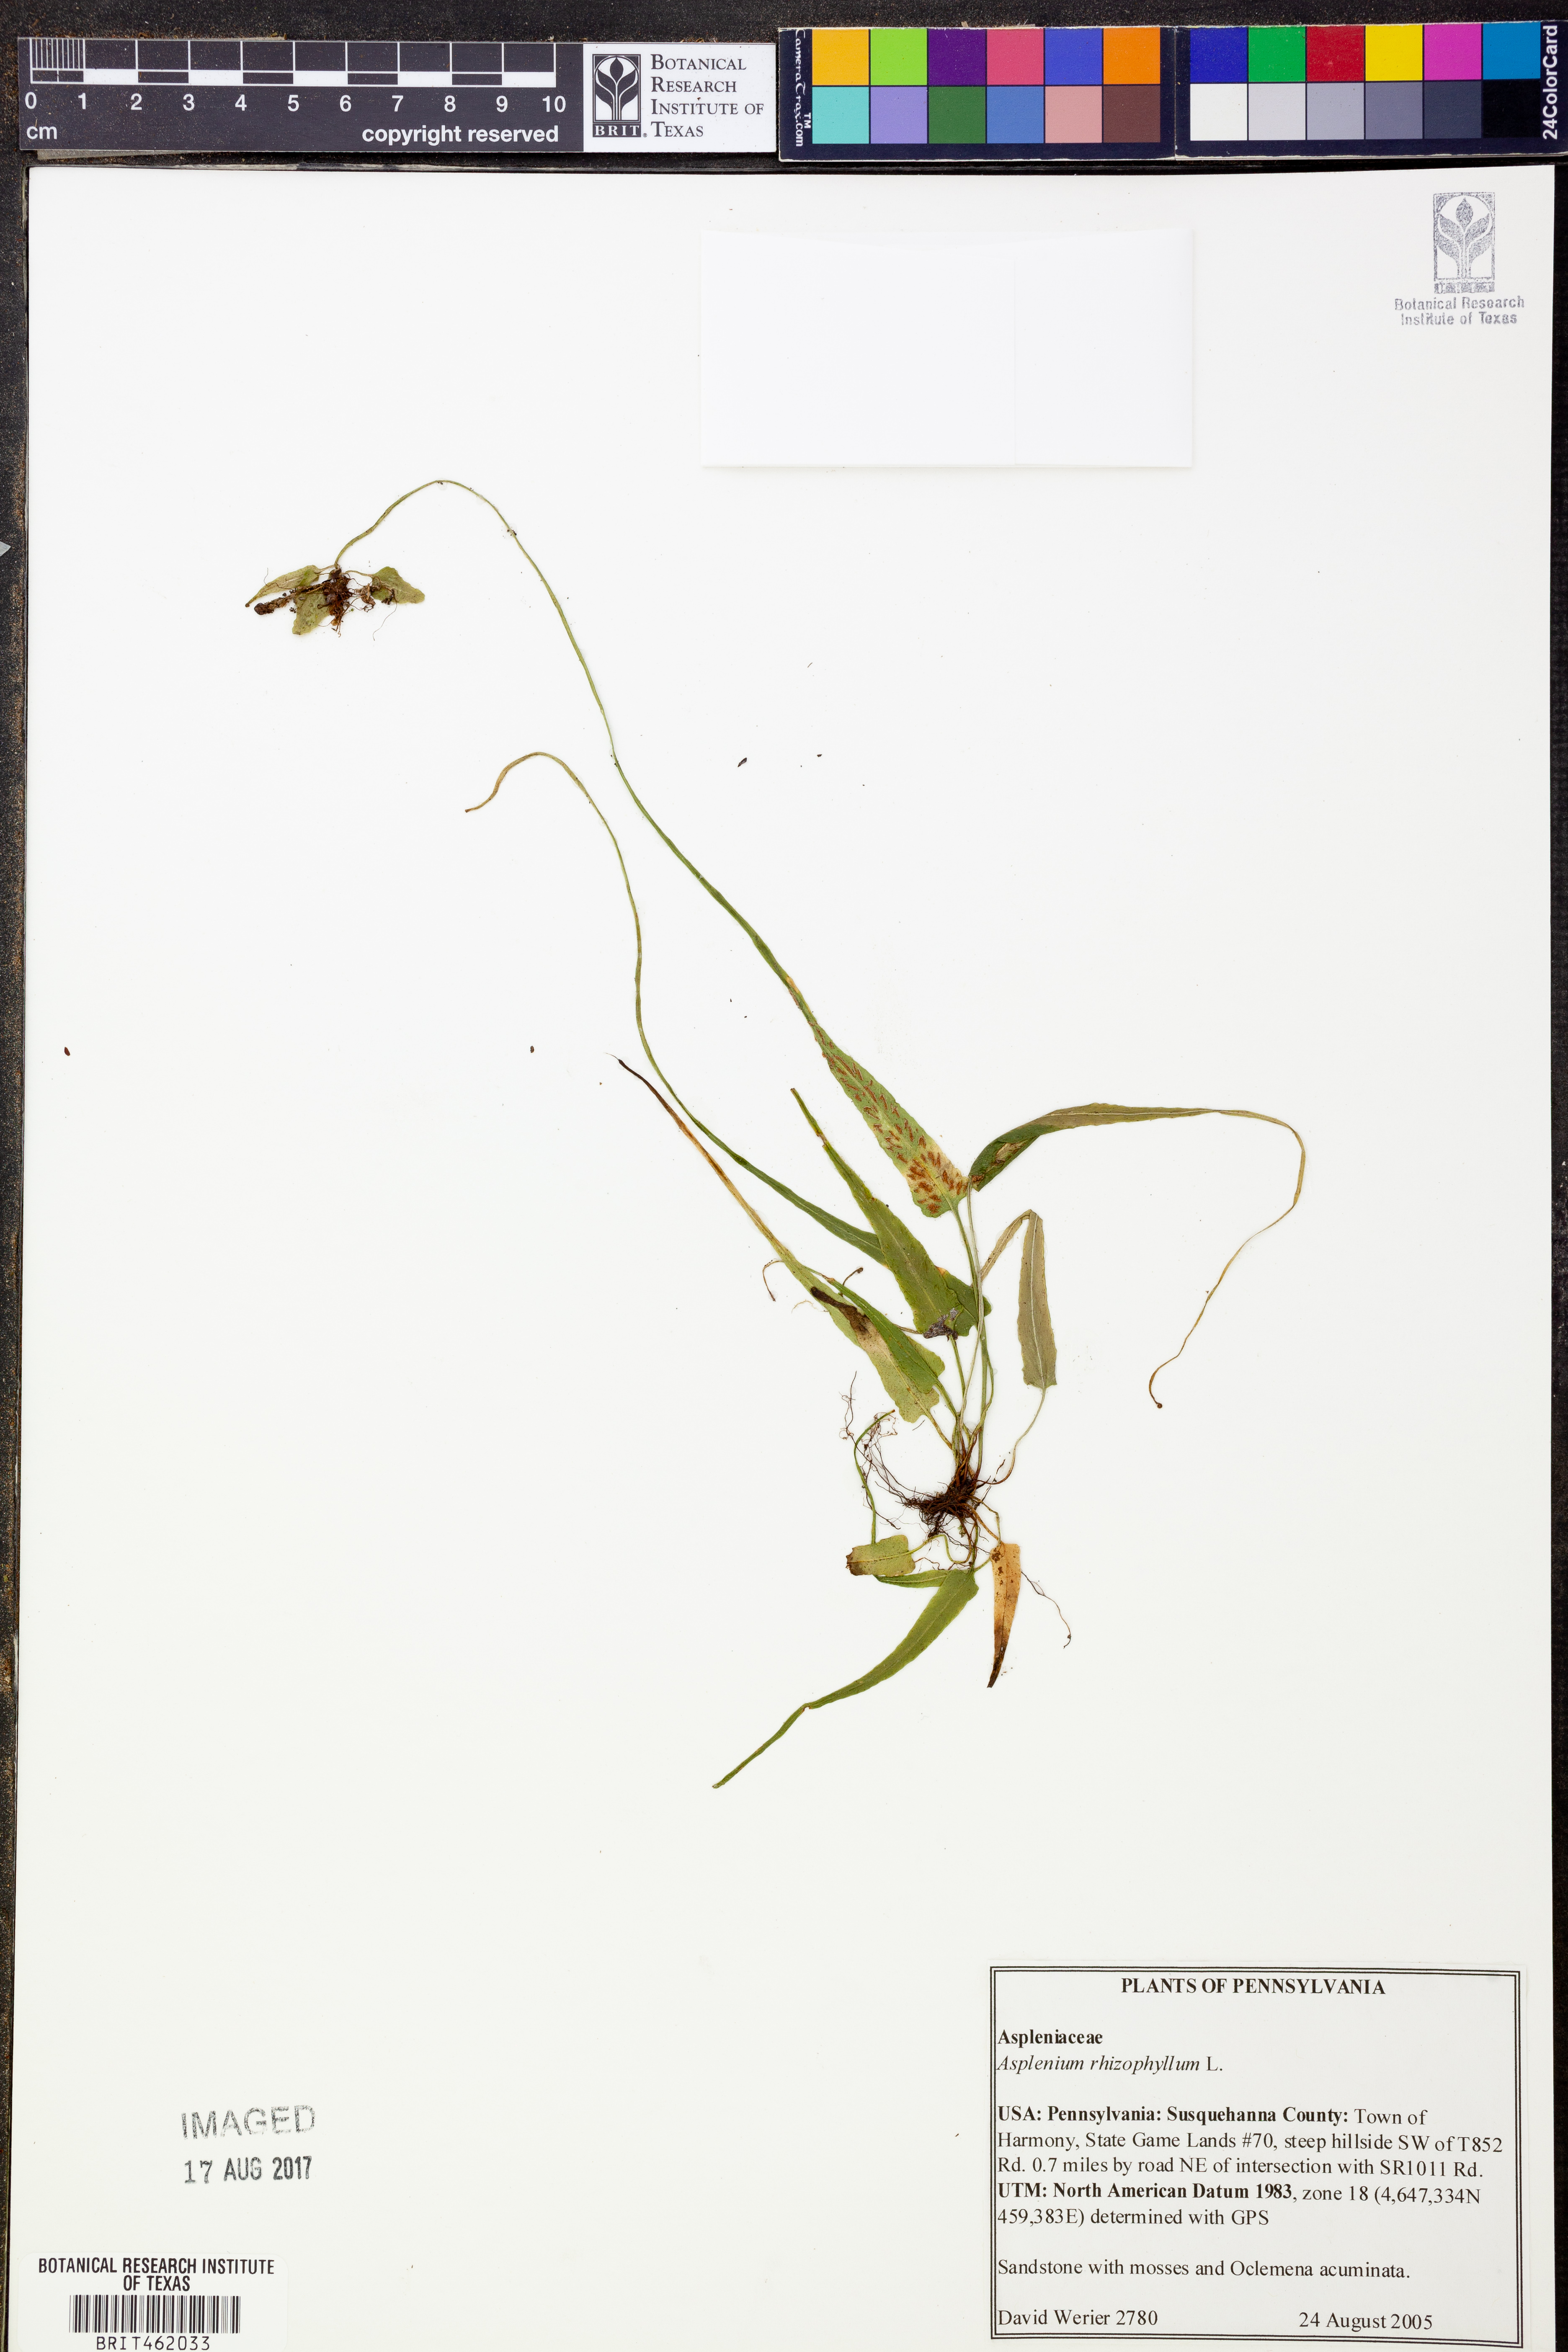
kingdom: Plantae
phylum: Tracheophyta
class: Polypodiopsida
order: Polypodiales
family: Aspleniaceae
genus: Asplenium
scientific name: Asplenium rhizophyllum
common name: Walking fern
